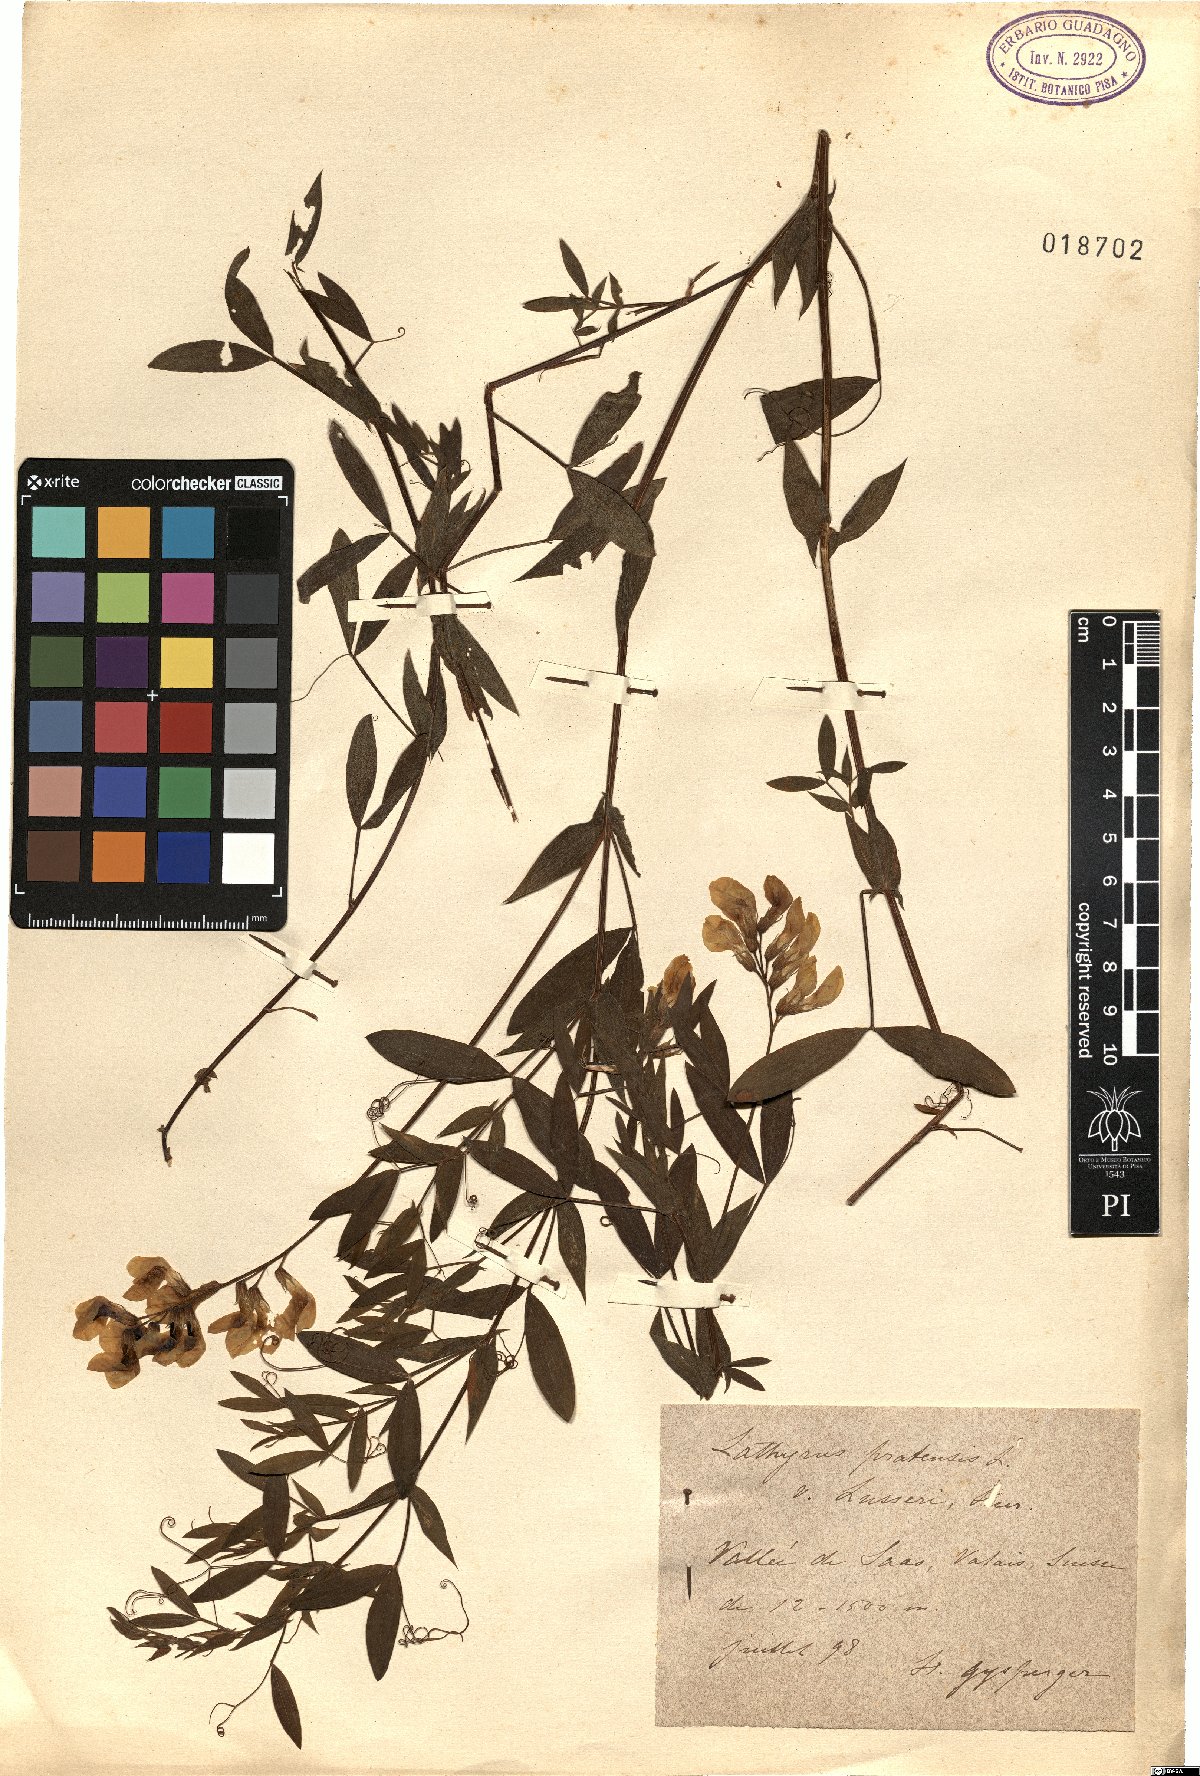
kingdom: Plantae
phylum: Tracheophyta
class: Magnoliopsida
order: Fabales
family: Fabaceae
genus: Lathyrus
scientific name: Lathyrus pratensis
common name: Meadow vetchling
